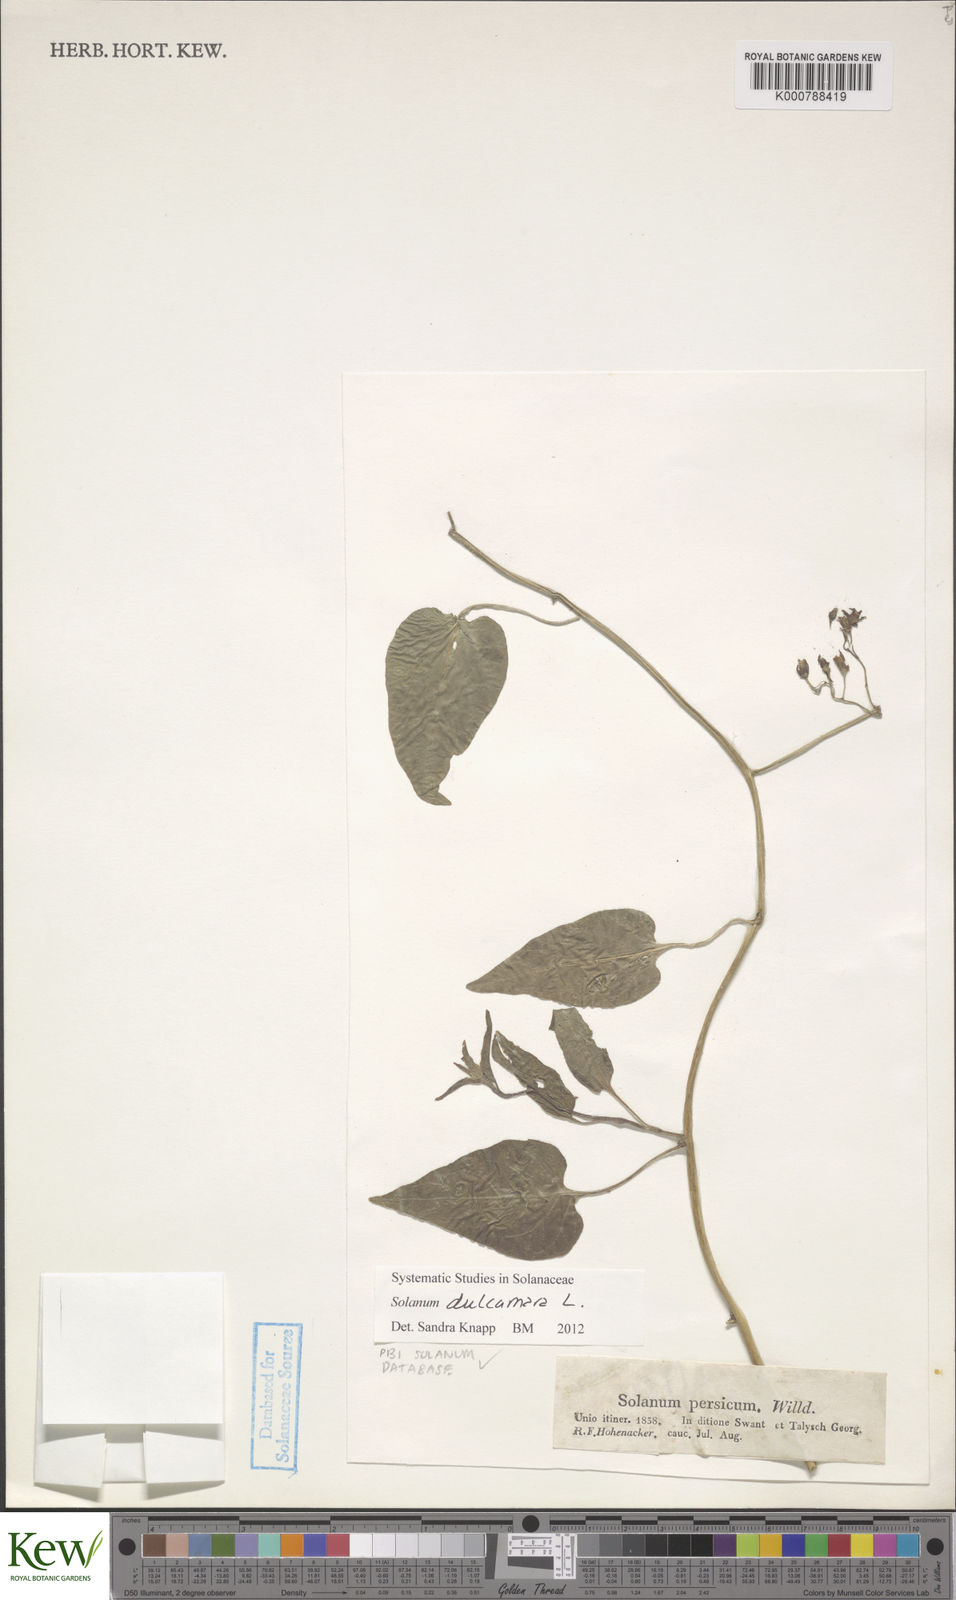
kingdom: Plantae
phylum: Tracheophyta
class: Magnoliopsida
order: Solanales
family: Solanaceae
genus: Solanum
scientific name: Solanum dulcamara
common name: Climbing nightshade
